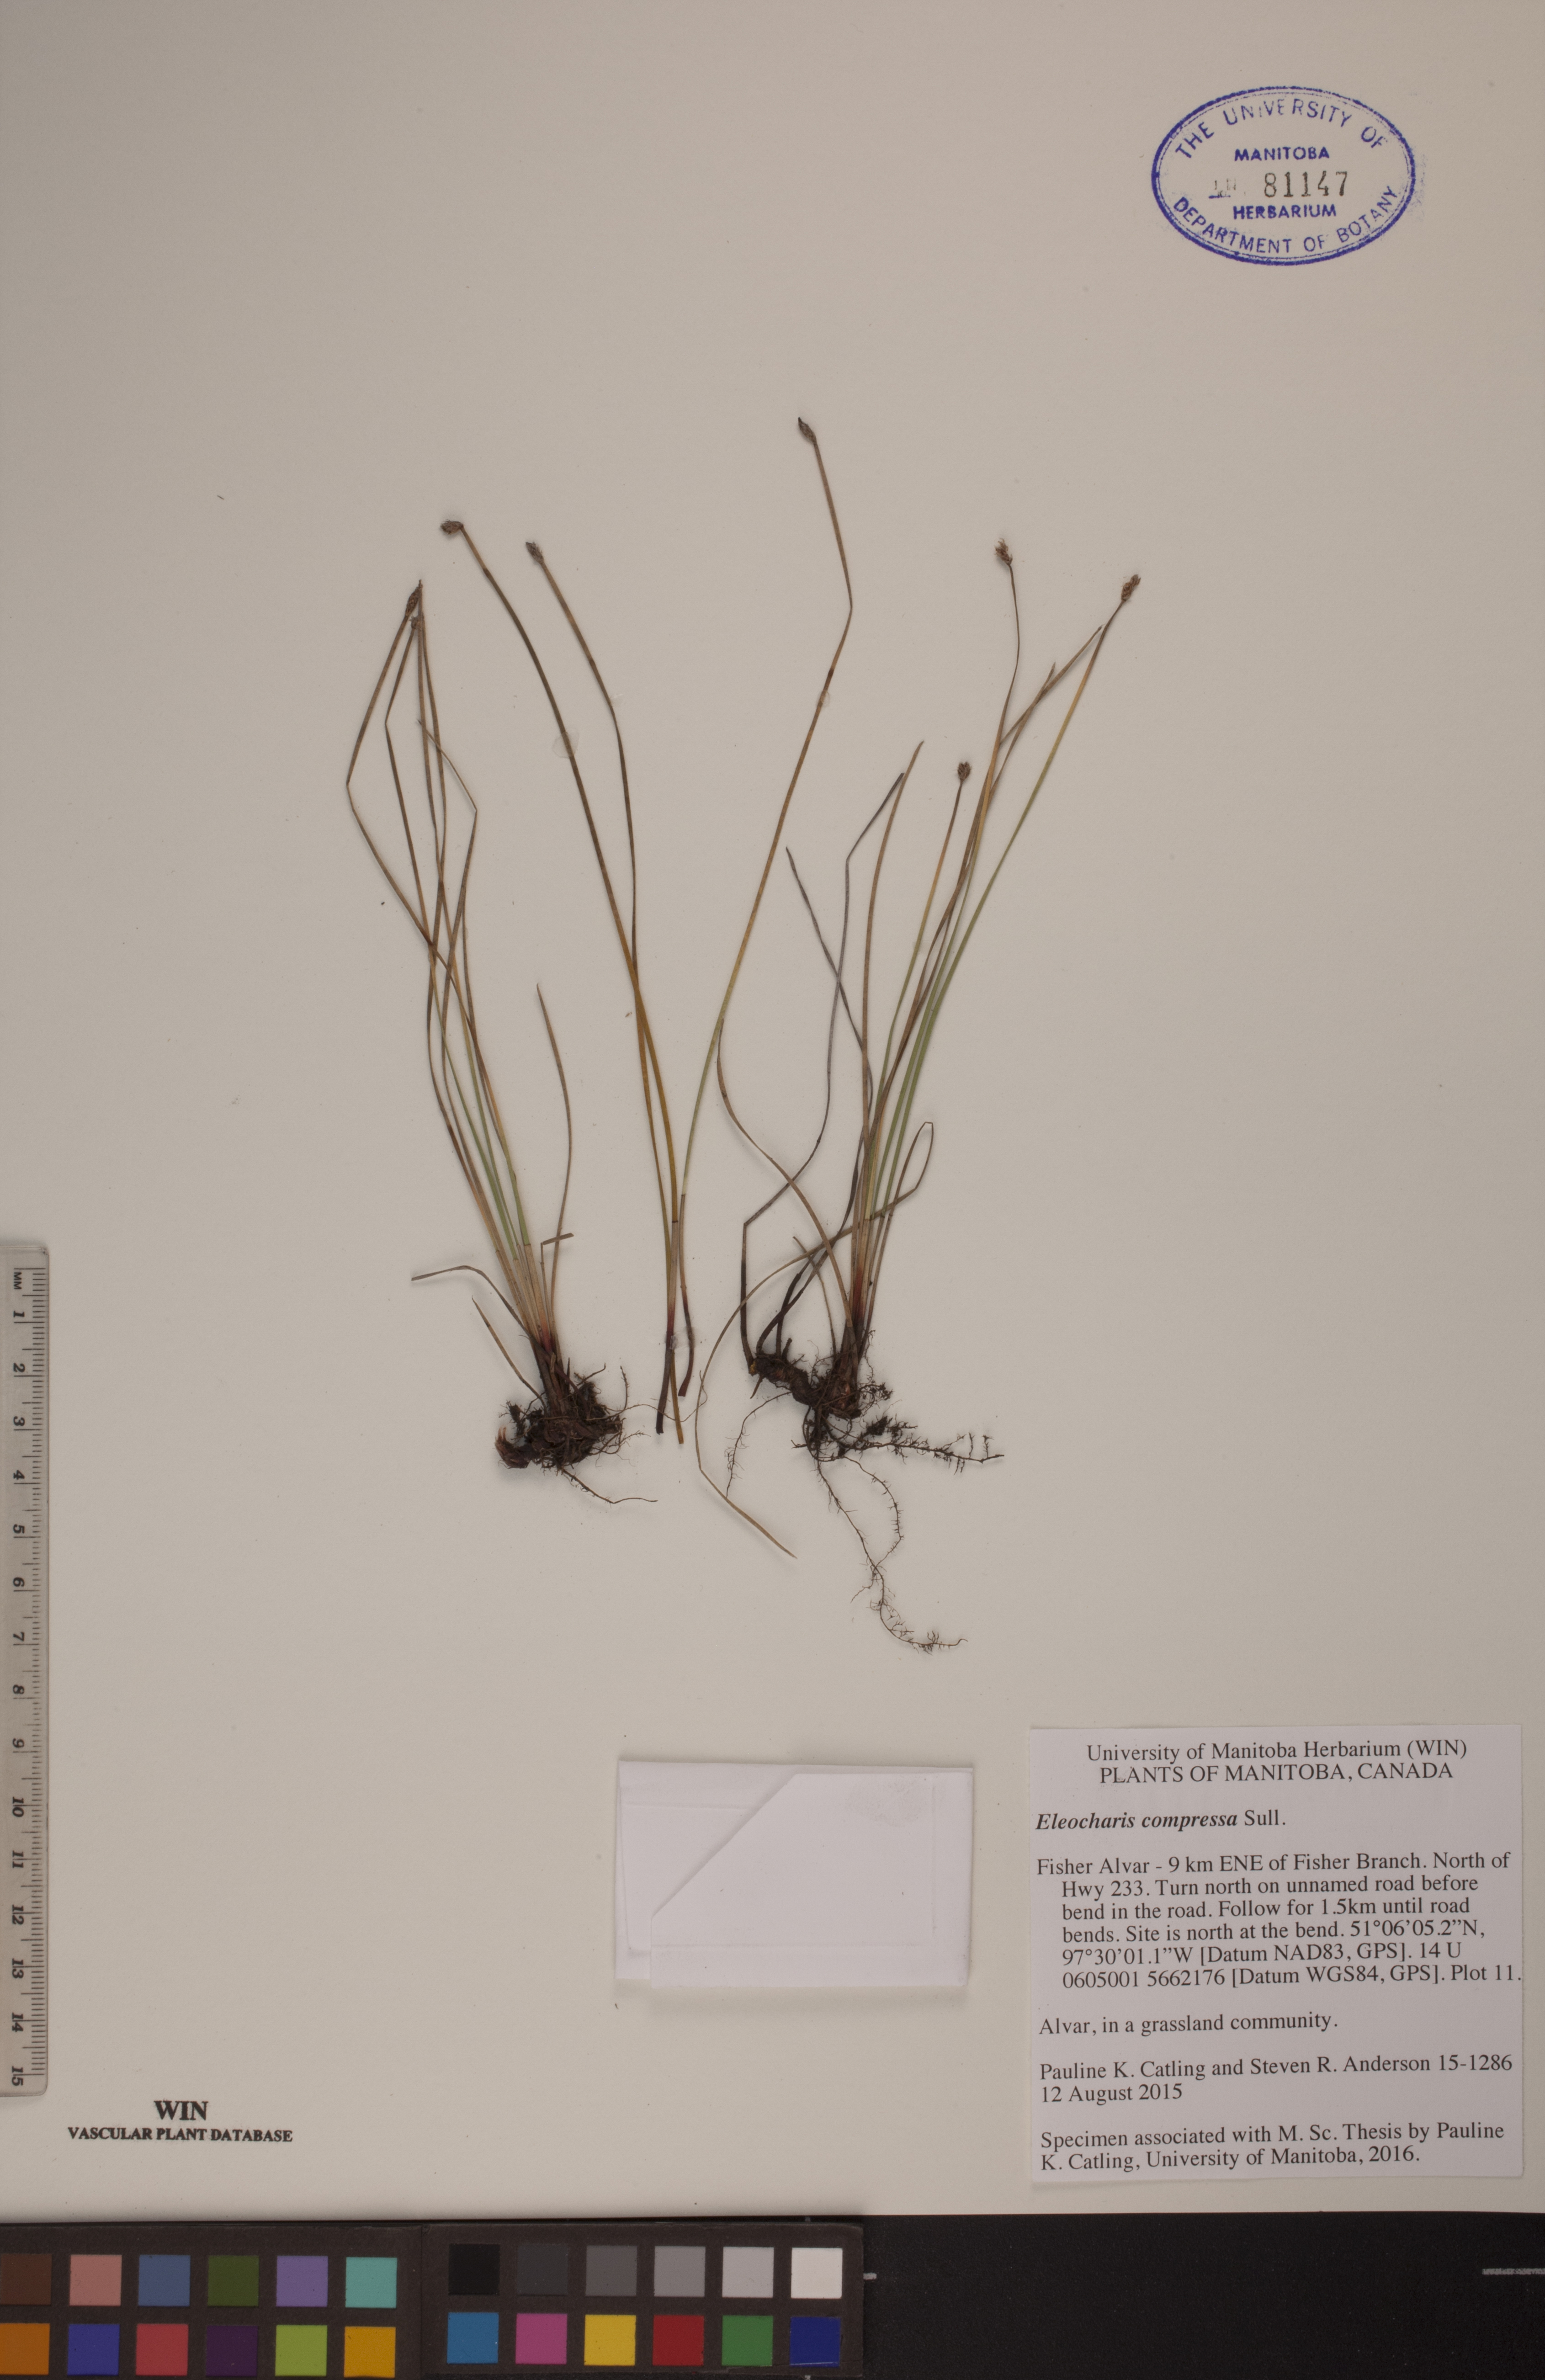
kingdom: Plantae
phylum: Tracheophyta
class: Liliopsida
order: Poales
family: Cyperaceae
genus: Eleocharis
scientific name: Eleocharis compressa
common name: Flat-stem spike-rush
